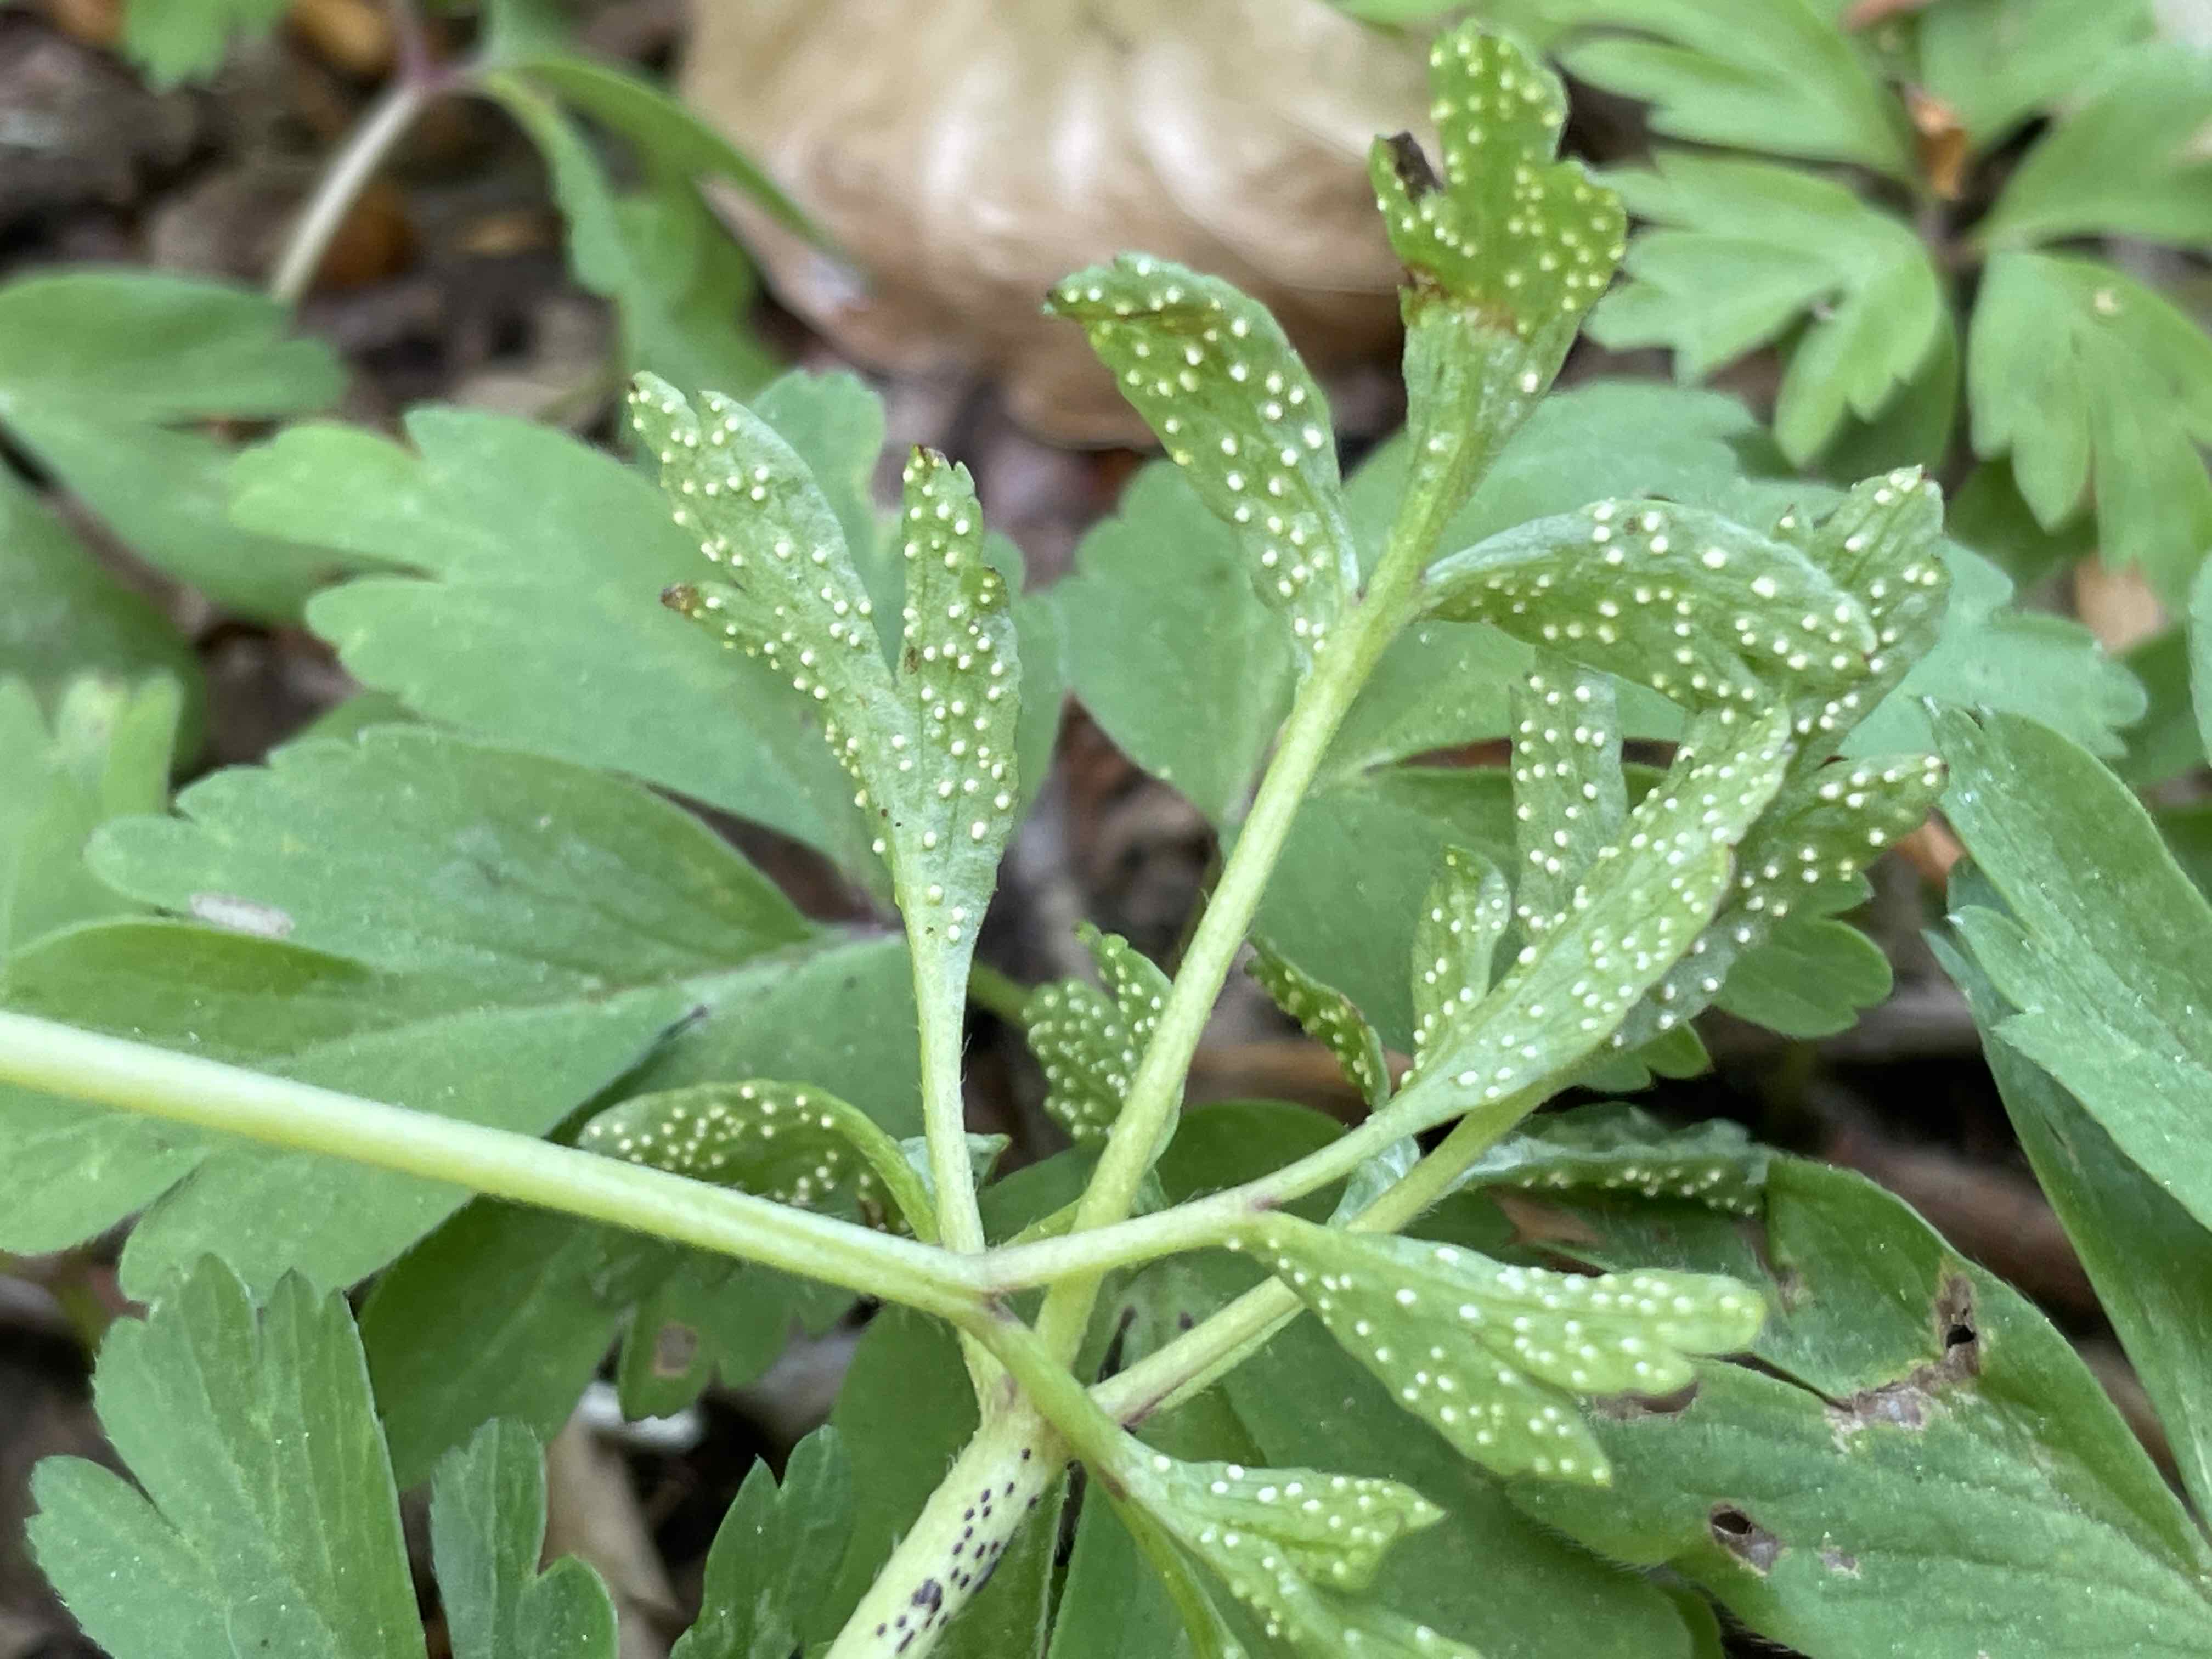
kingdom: Fungi
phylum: Basidiomycota
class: Pucciniomycetes
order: Pucciniales
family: Ochropsoraceae
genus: Ochropsora
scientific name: Ochropsora ariae
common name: anemone-okkerpletrust
